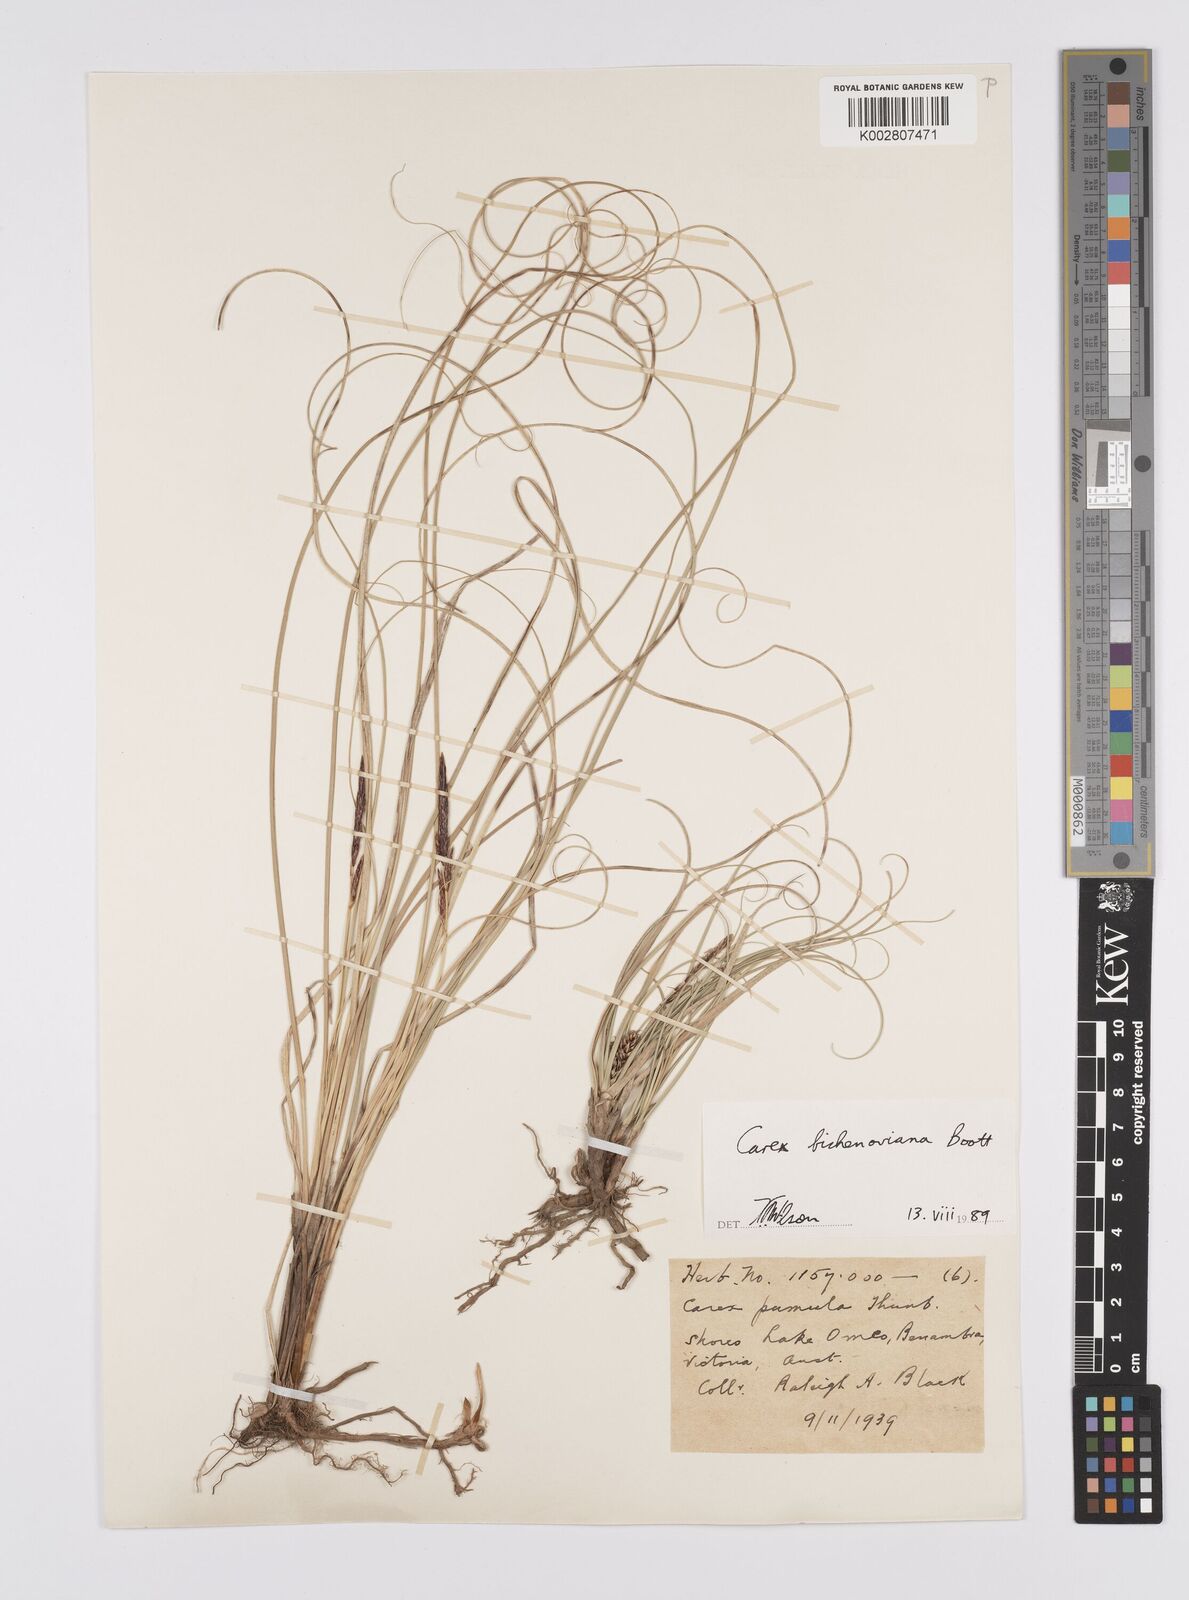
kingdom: Plantae
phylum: Tracheophyta
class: Liliopsida
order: Poales
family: Cyperaceae
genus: Carex
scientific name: Carex bichenoviana
